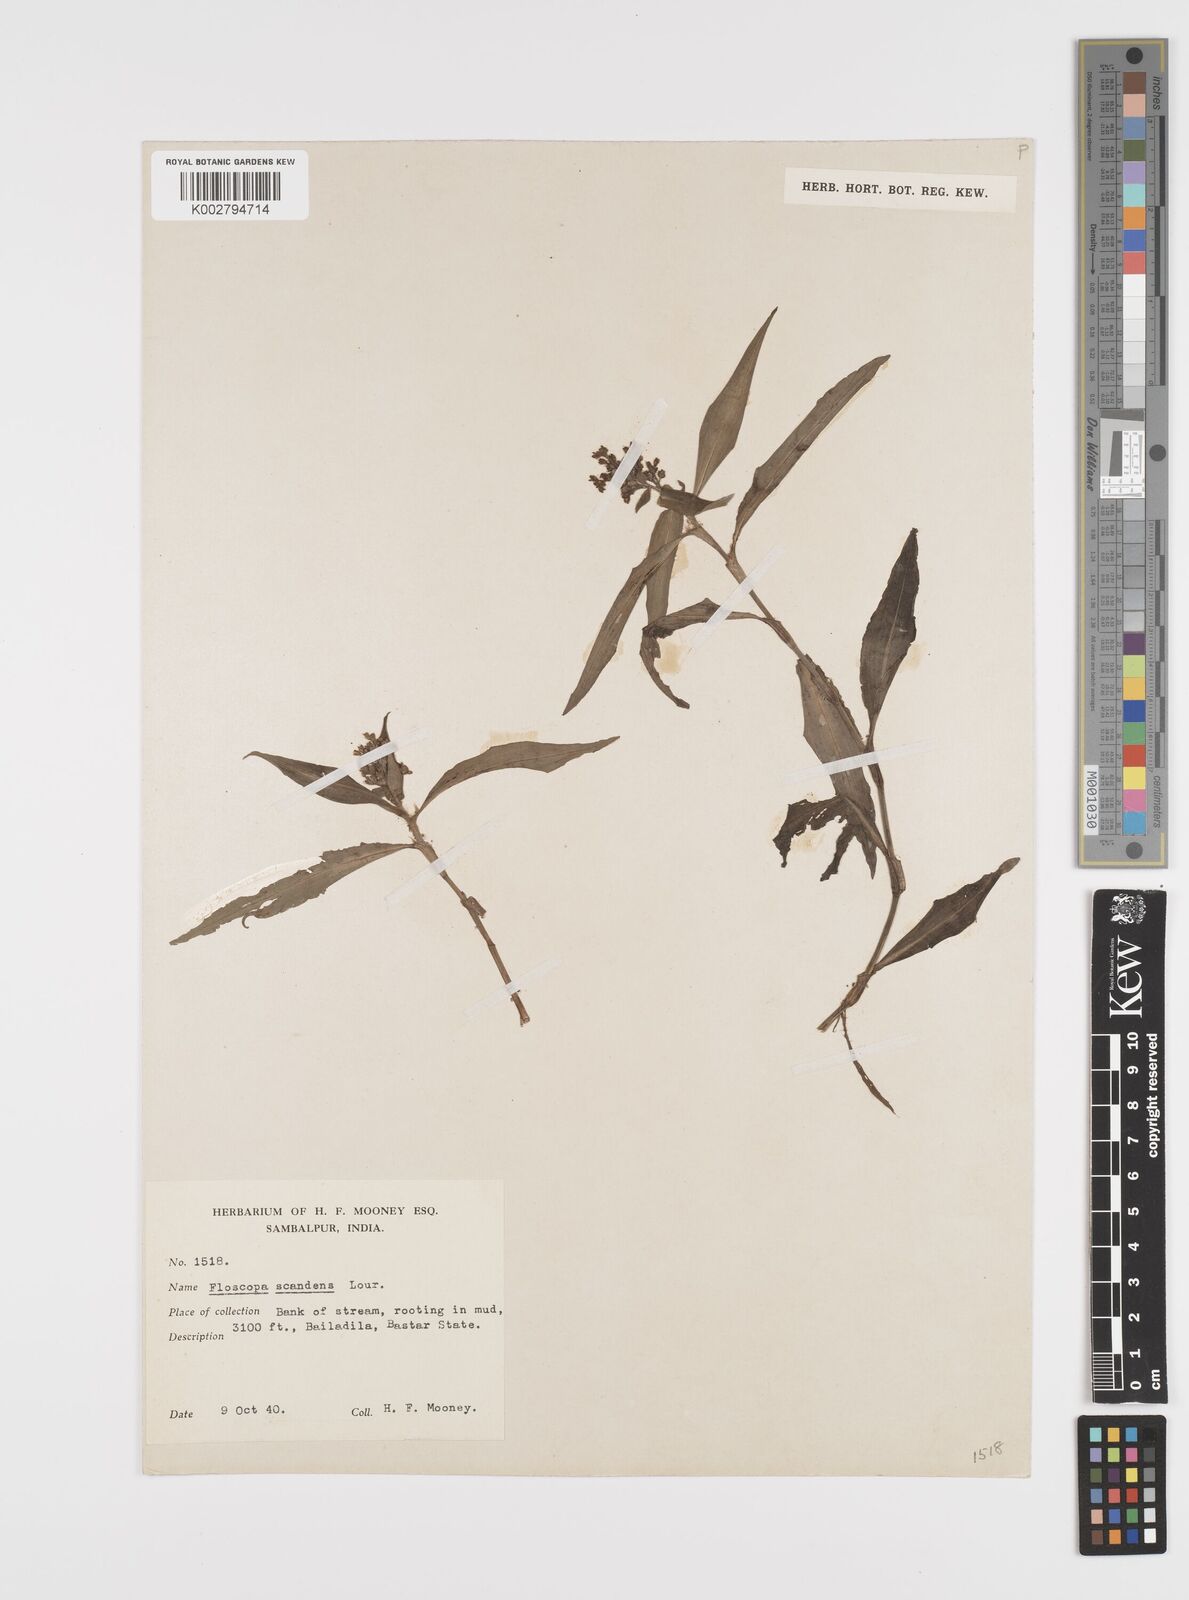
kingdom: Plantae
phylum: Tracheophyta
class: Liliopsida
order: Commelinales
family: Commelinaceae
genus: Floscopa
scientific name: Floscopa scandens
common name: Climbing flower cup
